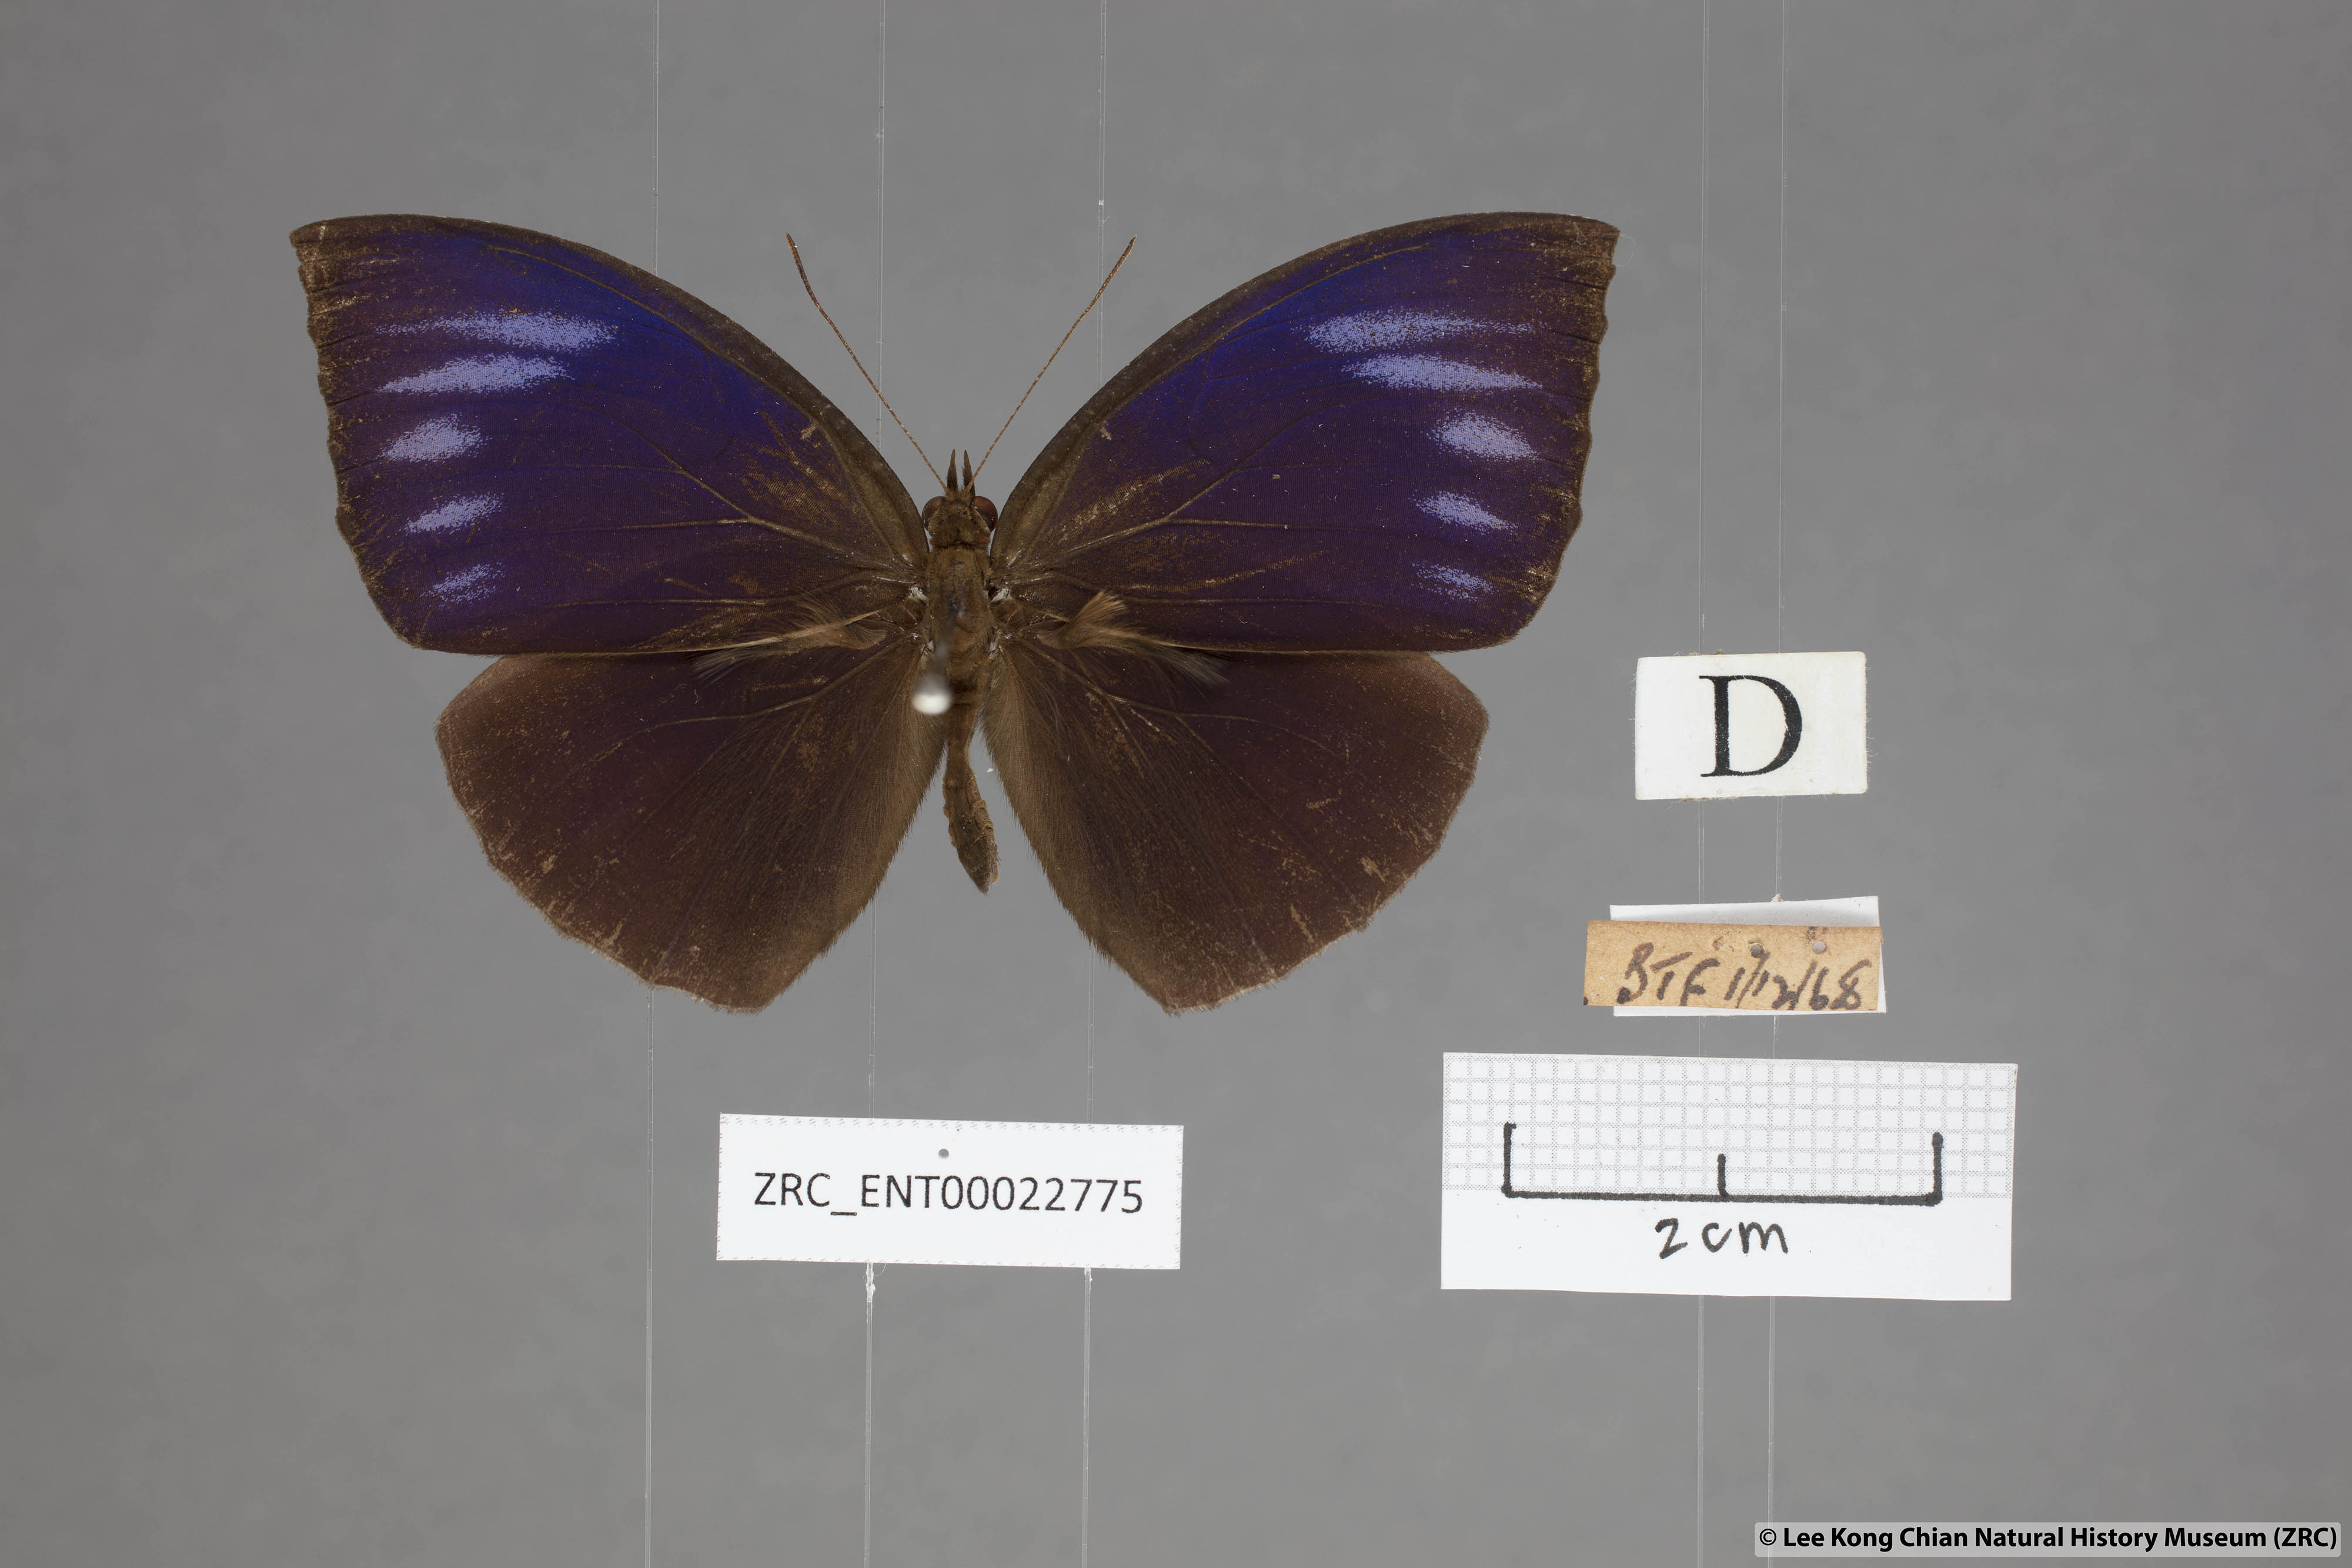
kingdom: Animalia
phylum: Arthropoda
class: Insecta
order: Lepidoptera
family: Nymphalidae
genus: Elymnias
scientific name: Elymnias penanga
